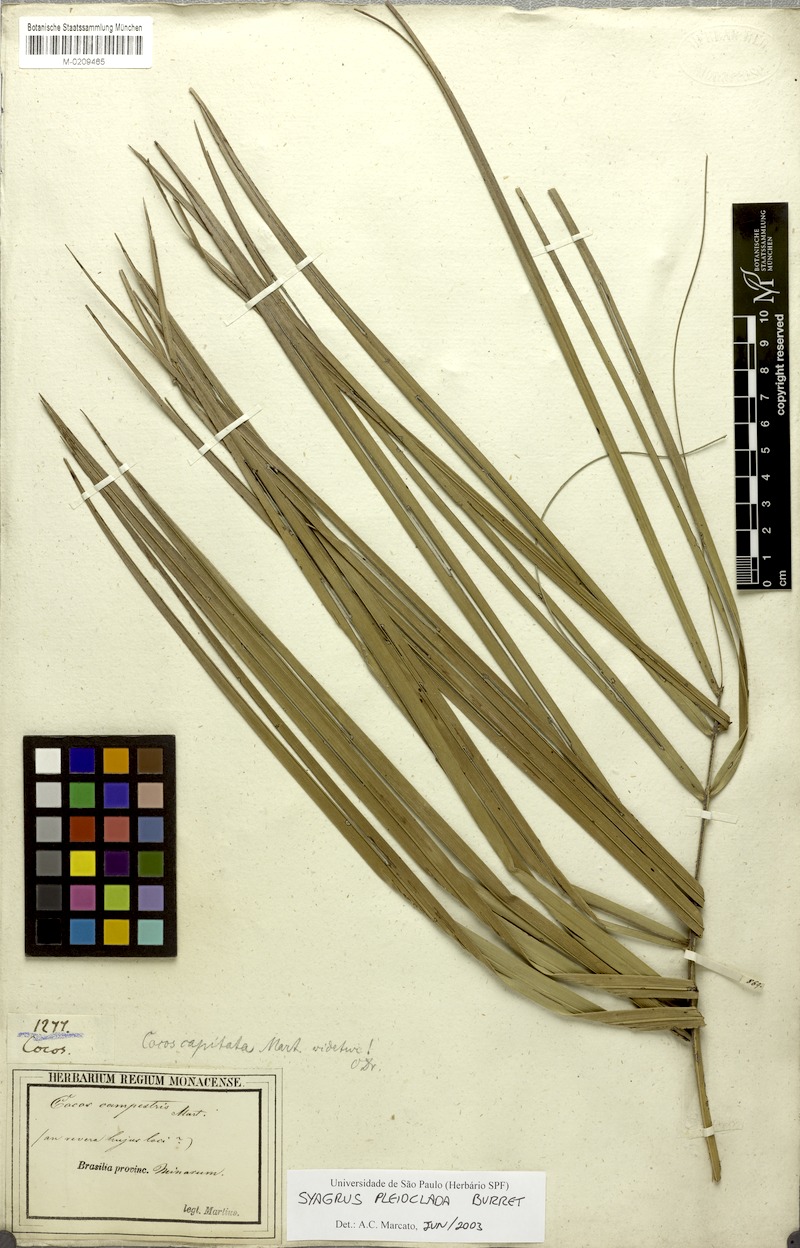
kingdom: Plantae
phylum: Tracheophyta
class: Liliopsida
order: Arecales
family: Arecaceae
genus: Syagrus
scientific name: Syagrus pleioclada
